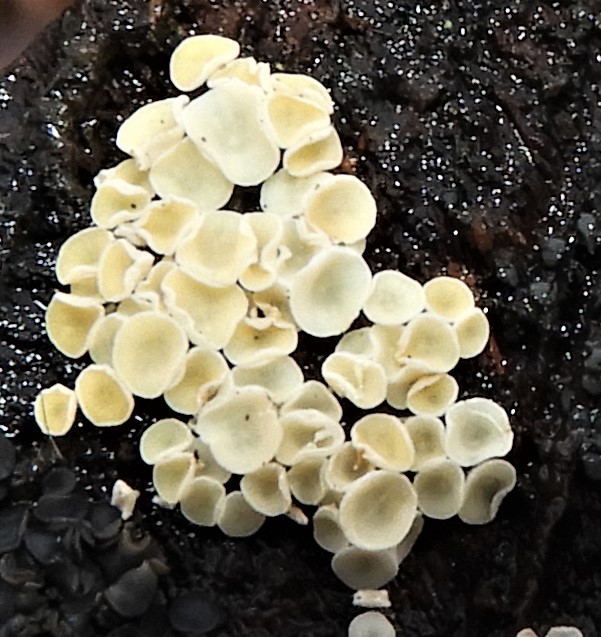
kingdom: Fungi
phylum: Ascomycota
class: Leotiomycetes
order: Helotiales
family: Hyaloscyphaceae
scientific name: Hyaloscyphaceae
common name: frynseskivefamilien
